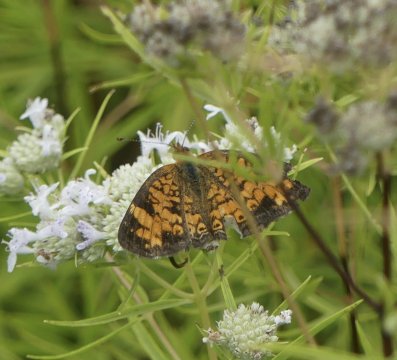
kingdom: Animalia
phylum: Arthropoda
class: Insecta
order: Lepidoptera
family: Nymphalidae
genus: Phyciodes
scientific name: Phyciodes tharos
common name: Pearl Crescent
